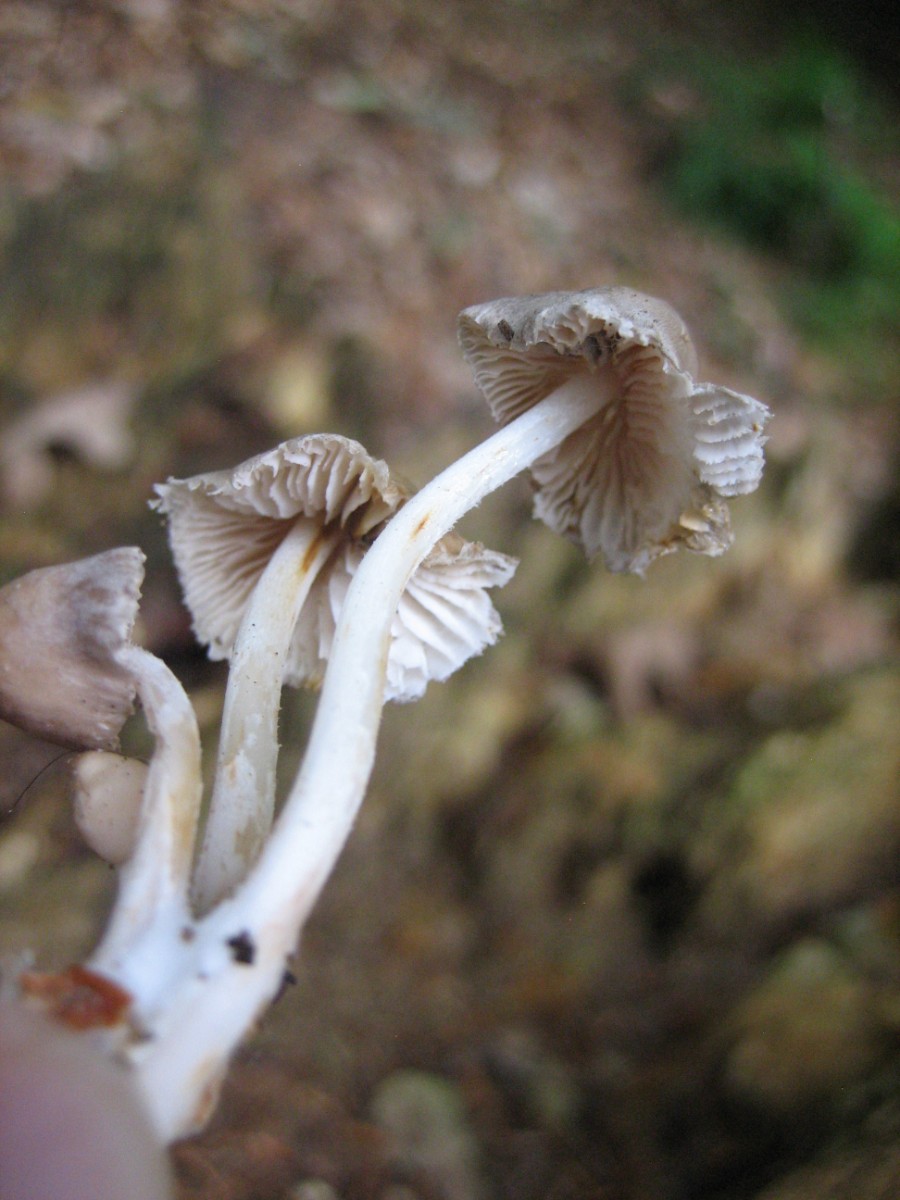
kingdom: Fungi
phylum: Basidiomycota
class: Agaricomycetes
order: Agaricales
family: Mycenaceae
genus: Mycena
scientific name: Mycena
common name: huesvamp
